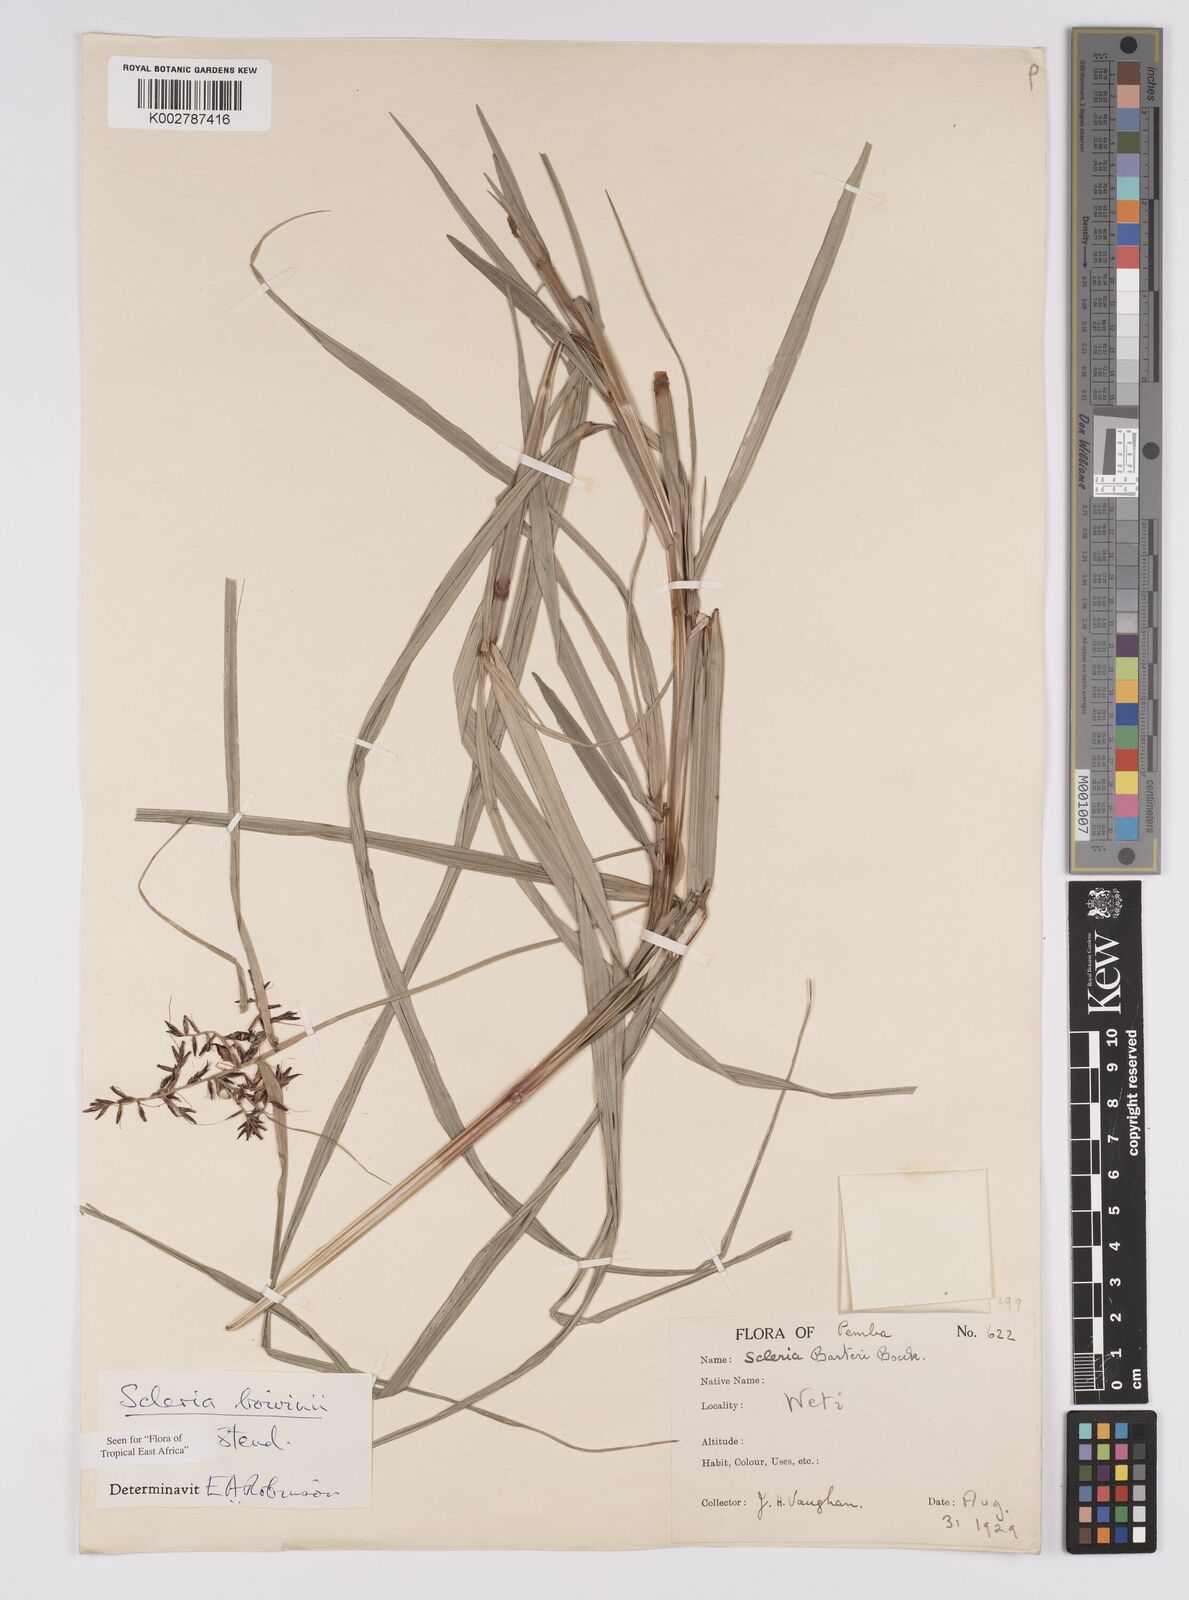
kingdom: Plantae
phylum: Tracheophyta
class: Liliopsida
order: Poales
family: Cyperaceae
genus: Scleria
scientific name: Scleria boivinii
